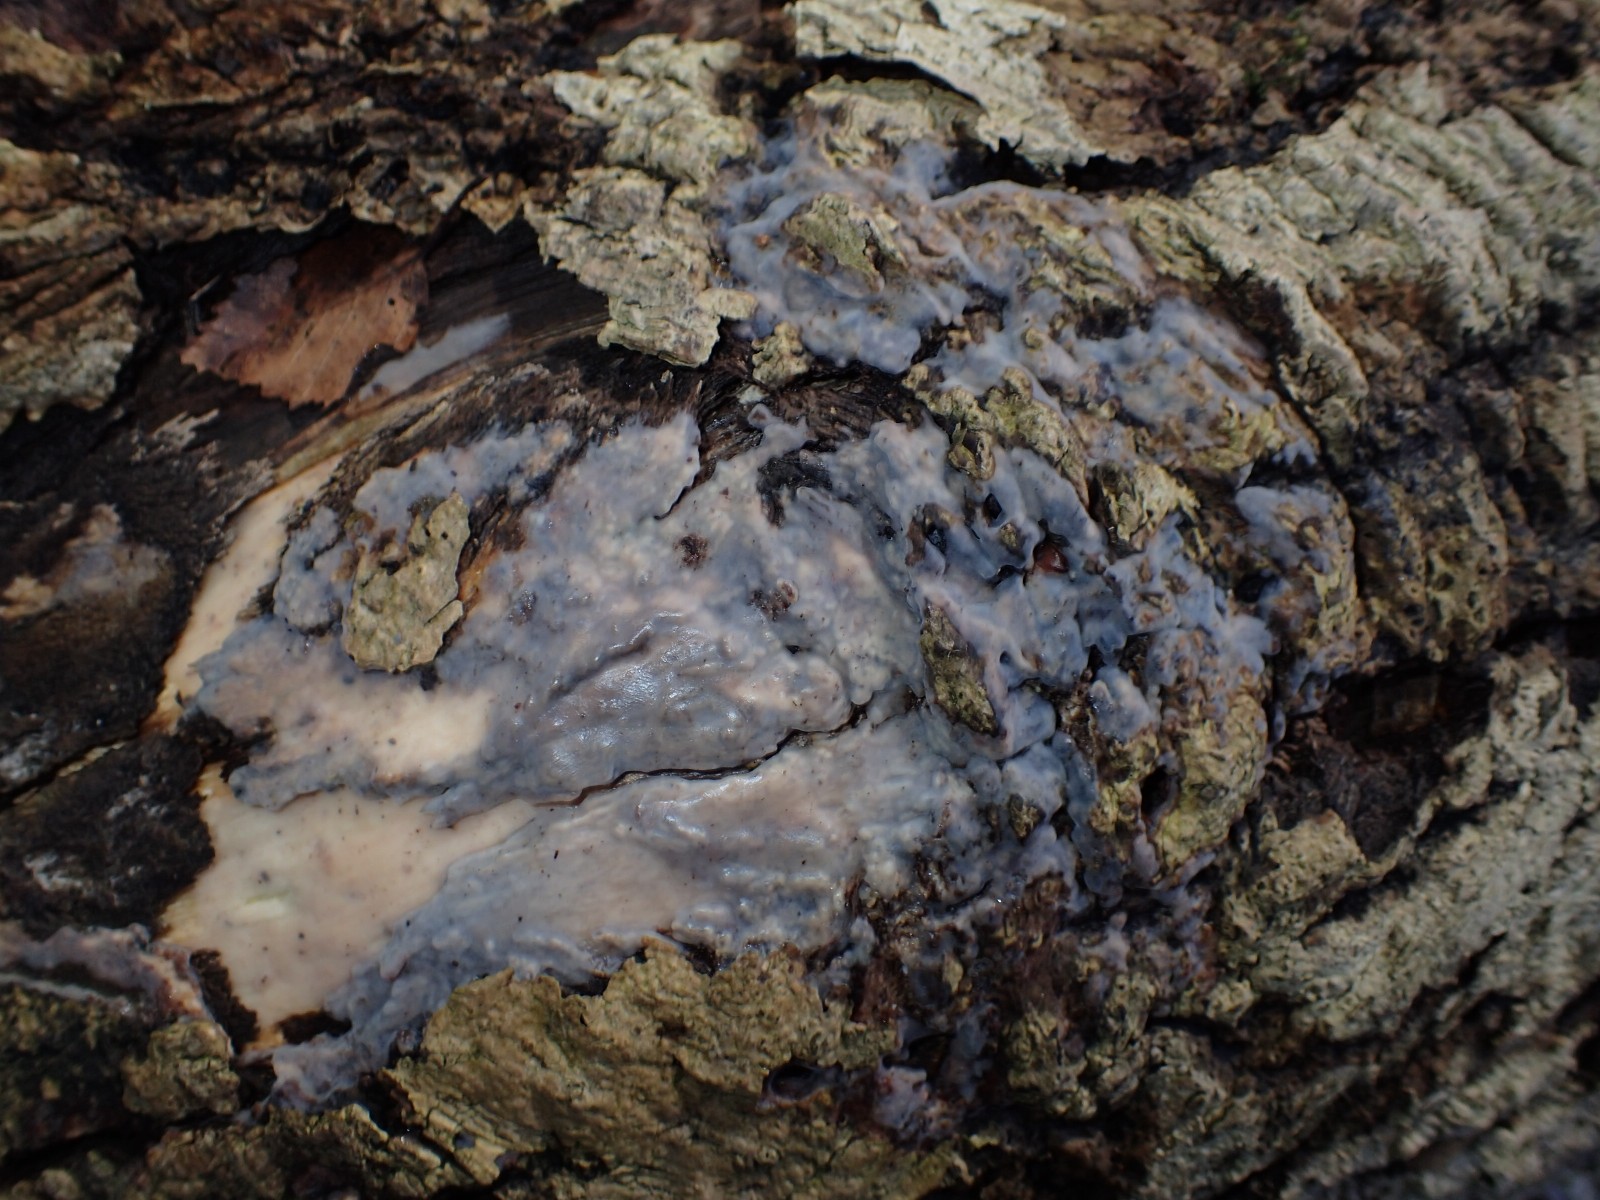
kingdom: Fungi
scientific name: Fungi
